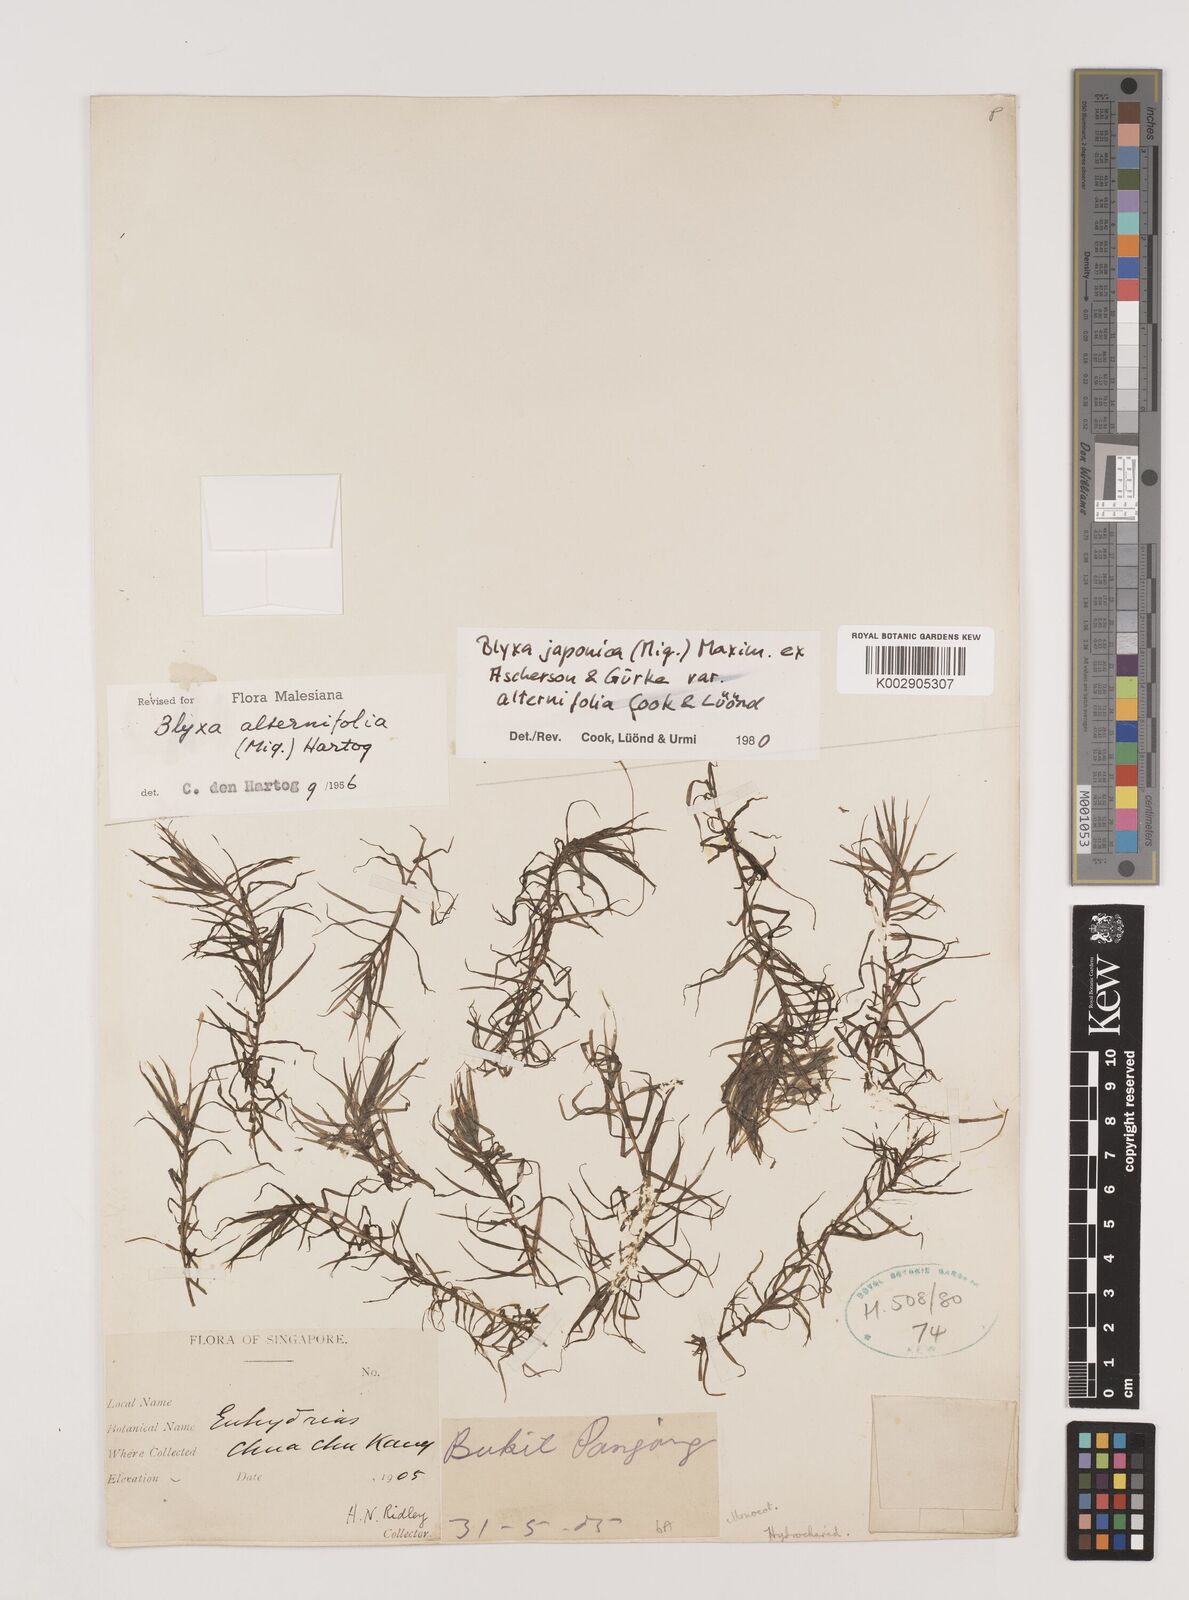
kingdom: Plantae
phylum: Tracheophyta
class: Liliopsida
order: Alismatales
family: Hydrocharitaceae
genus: Blyxa
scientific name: Blyxa japonica
